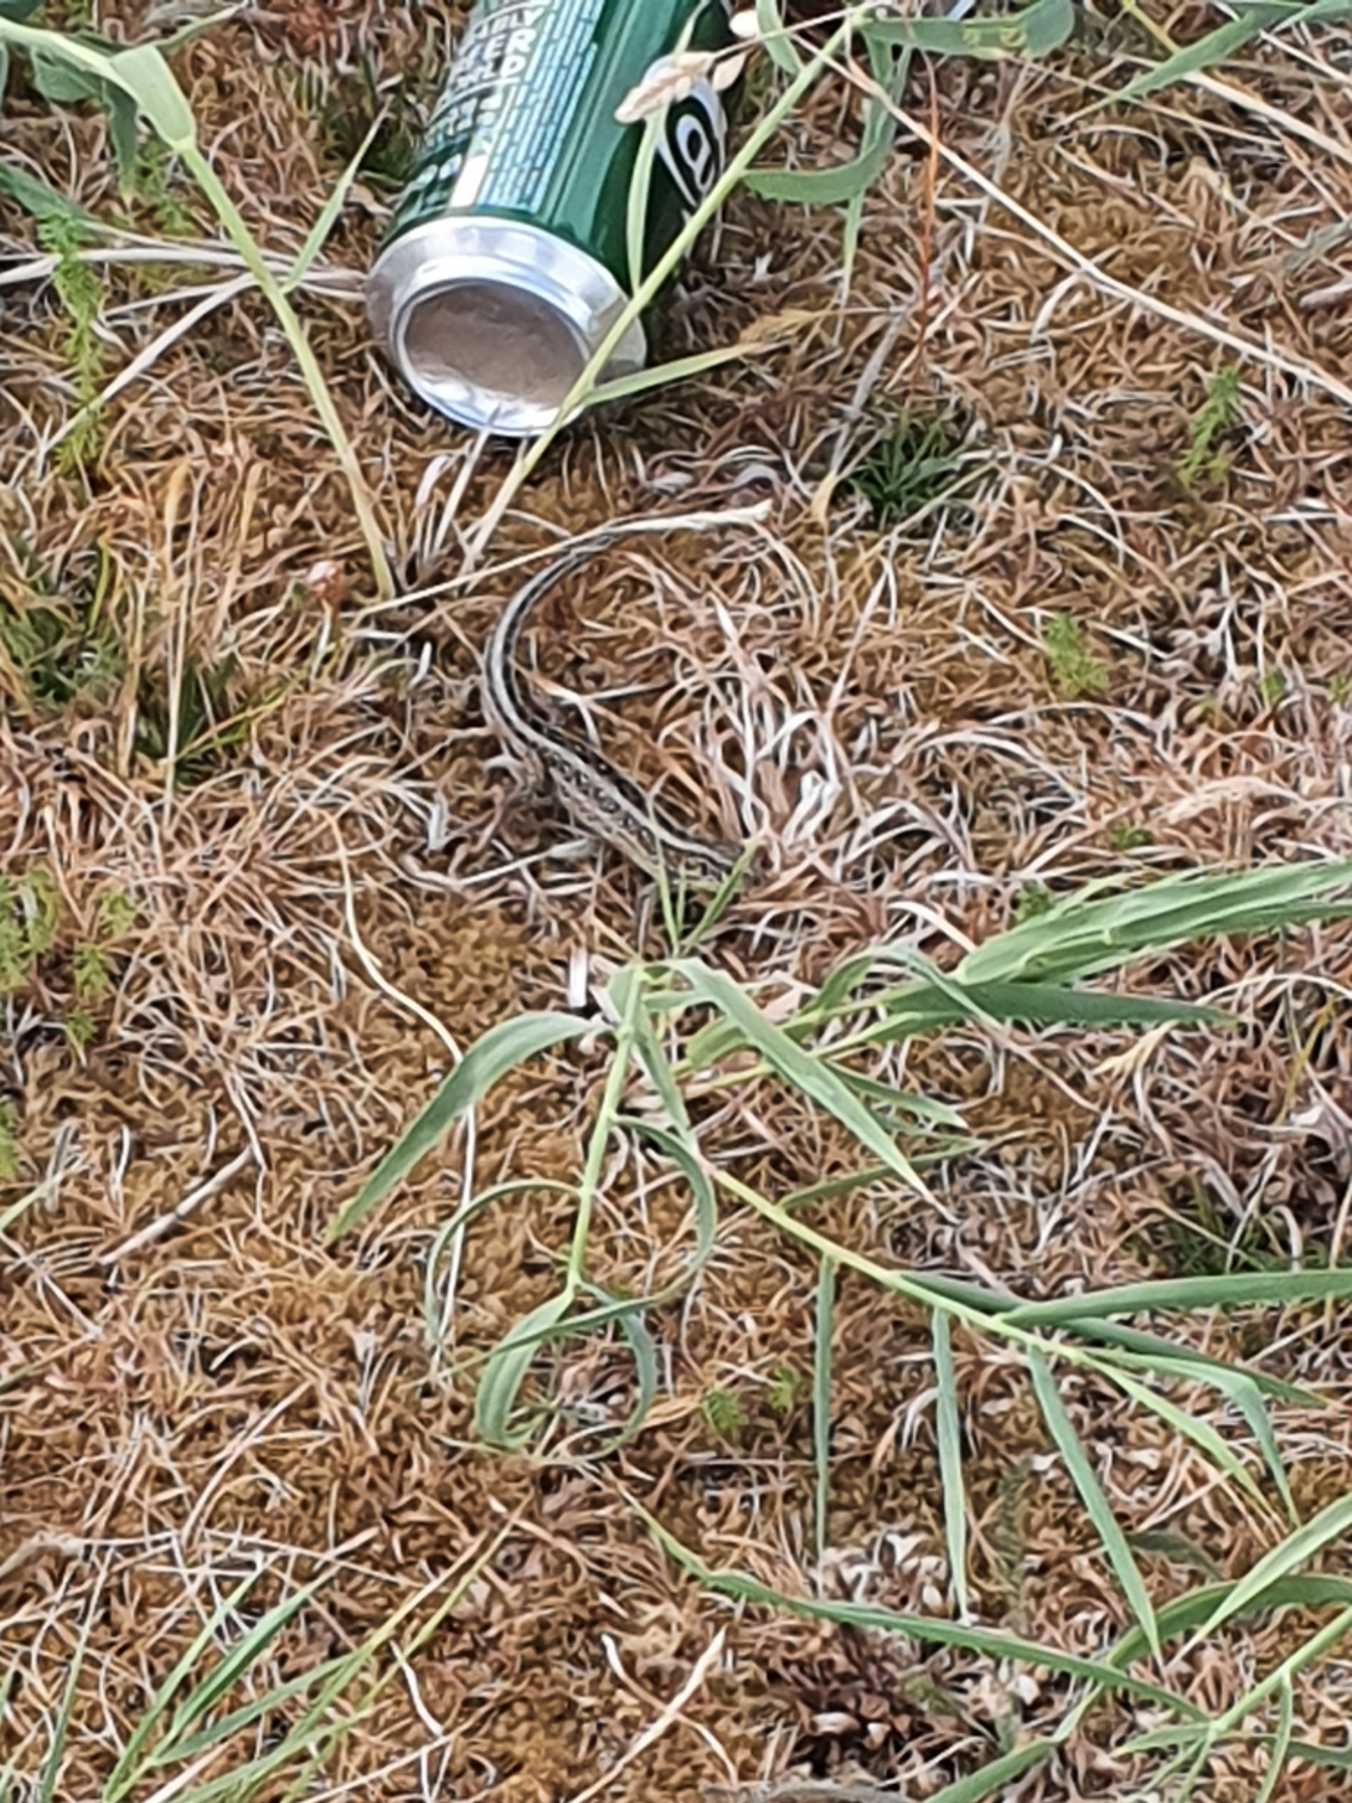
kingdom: Animalia
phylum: Chordata
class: Squamata
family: Lacertidae
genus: Lacerta
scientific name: Lacerta agilis
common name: Markfirben
